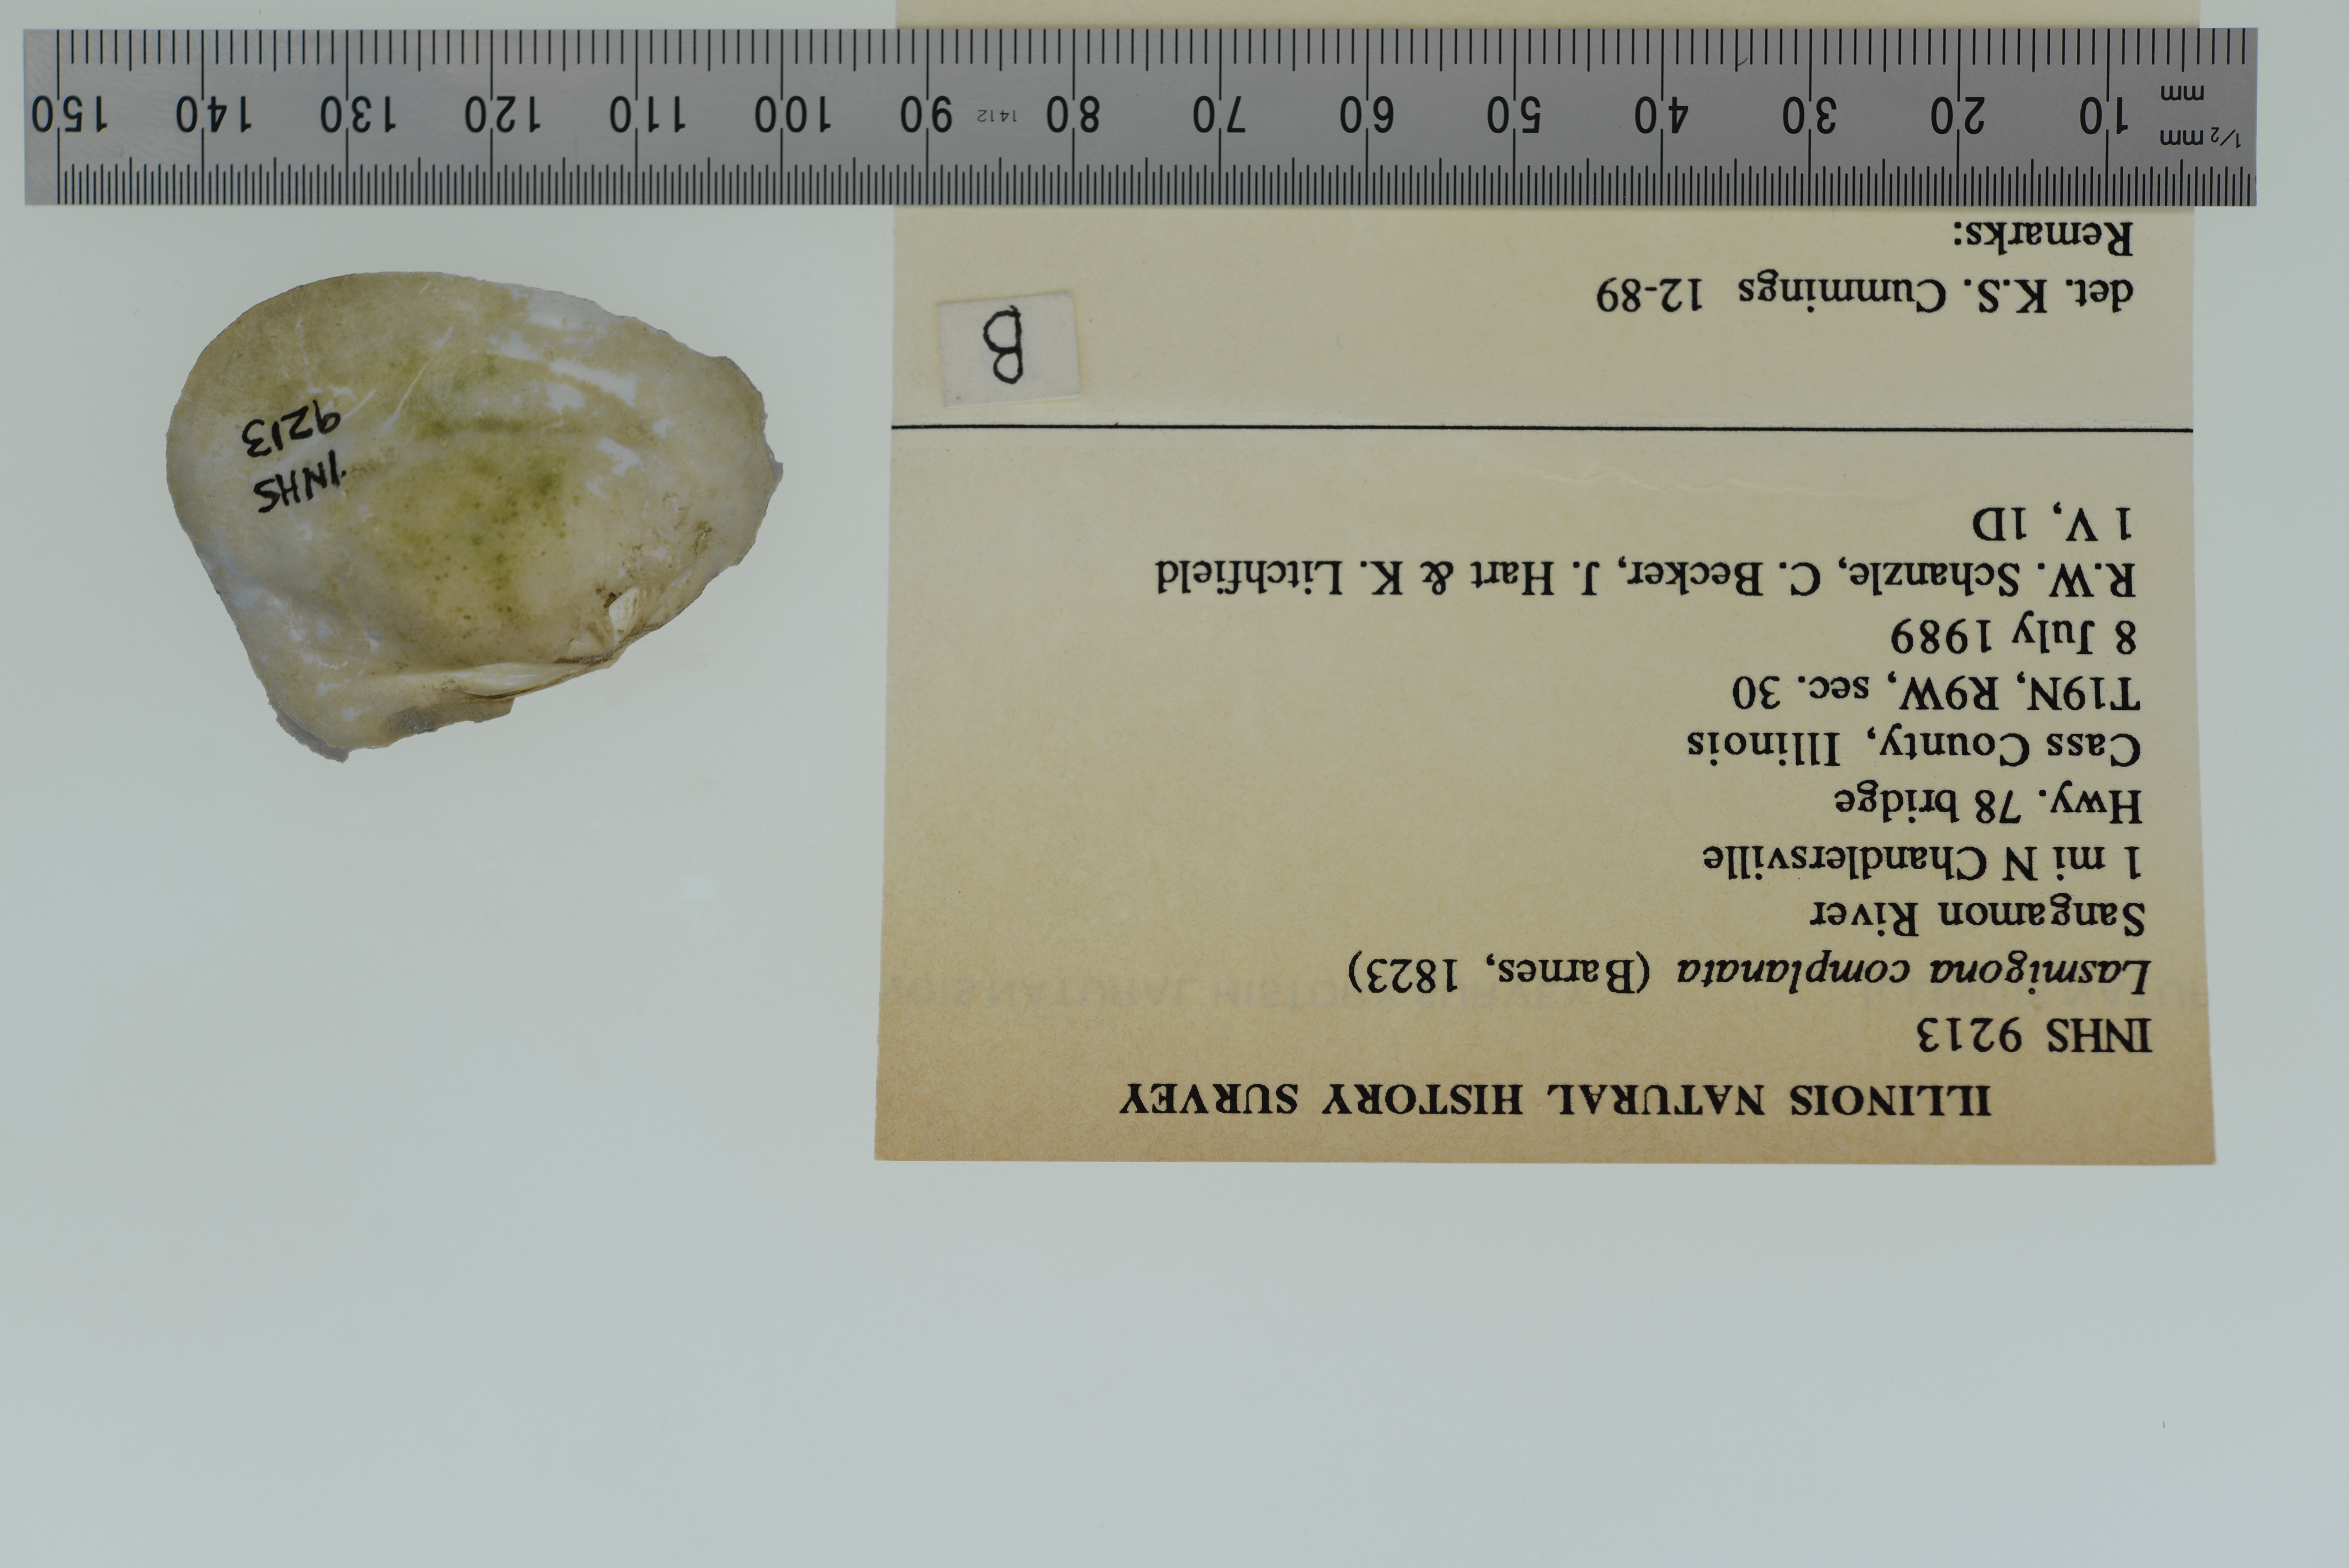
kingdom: Animalia
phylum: Mollusca
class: Bivalvia
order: Unionida
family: Unionidae
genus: Lasmigona
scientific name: Lasmigona complanata
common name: White heelsplitter
